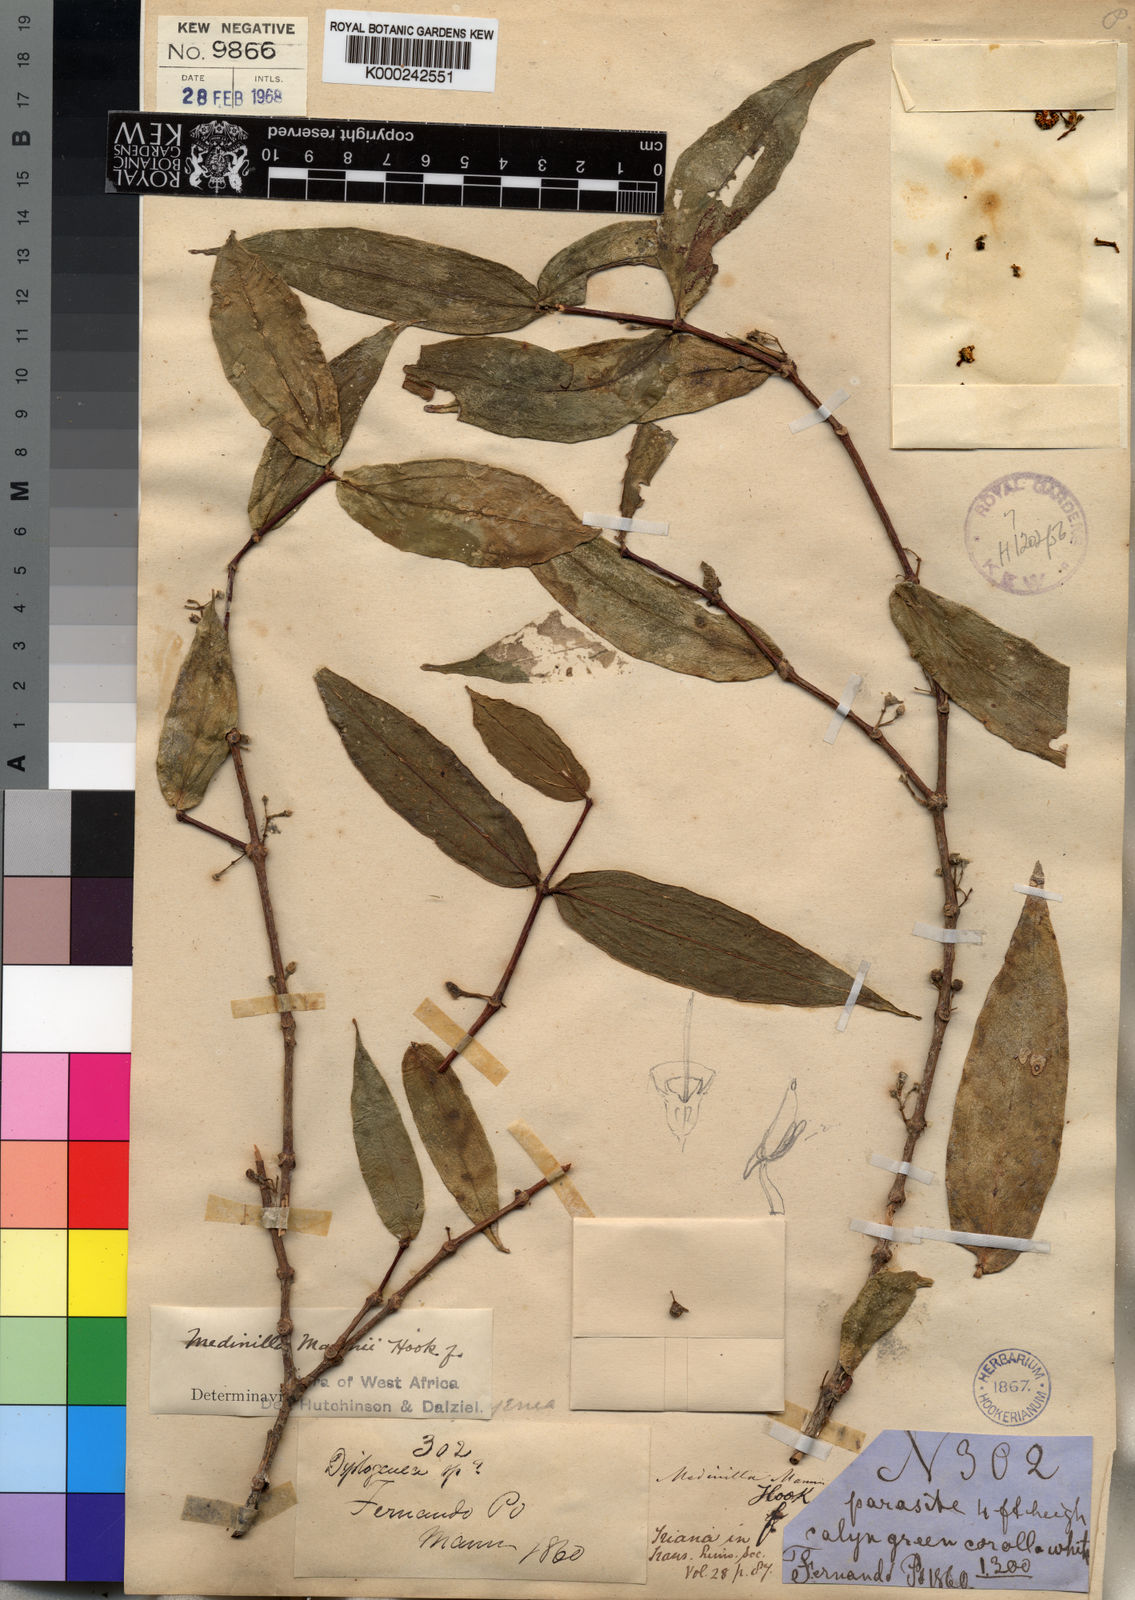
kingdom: Plantae
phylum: Tracheophyta
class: Magnoliopsida
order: Myrtales
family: Melastomataceae
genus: Medinilla
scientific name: Medinilla mannii
